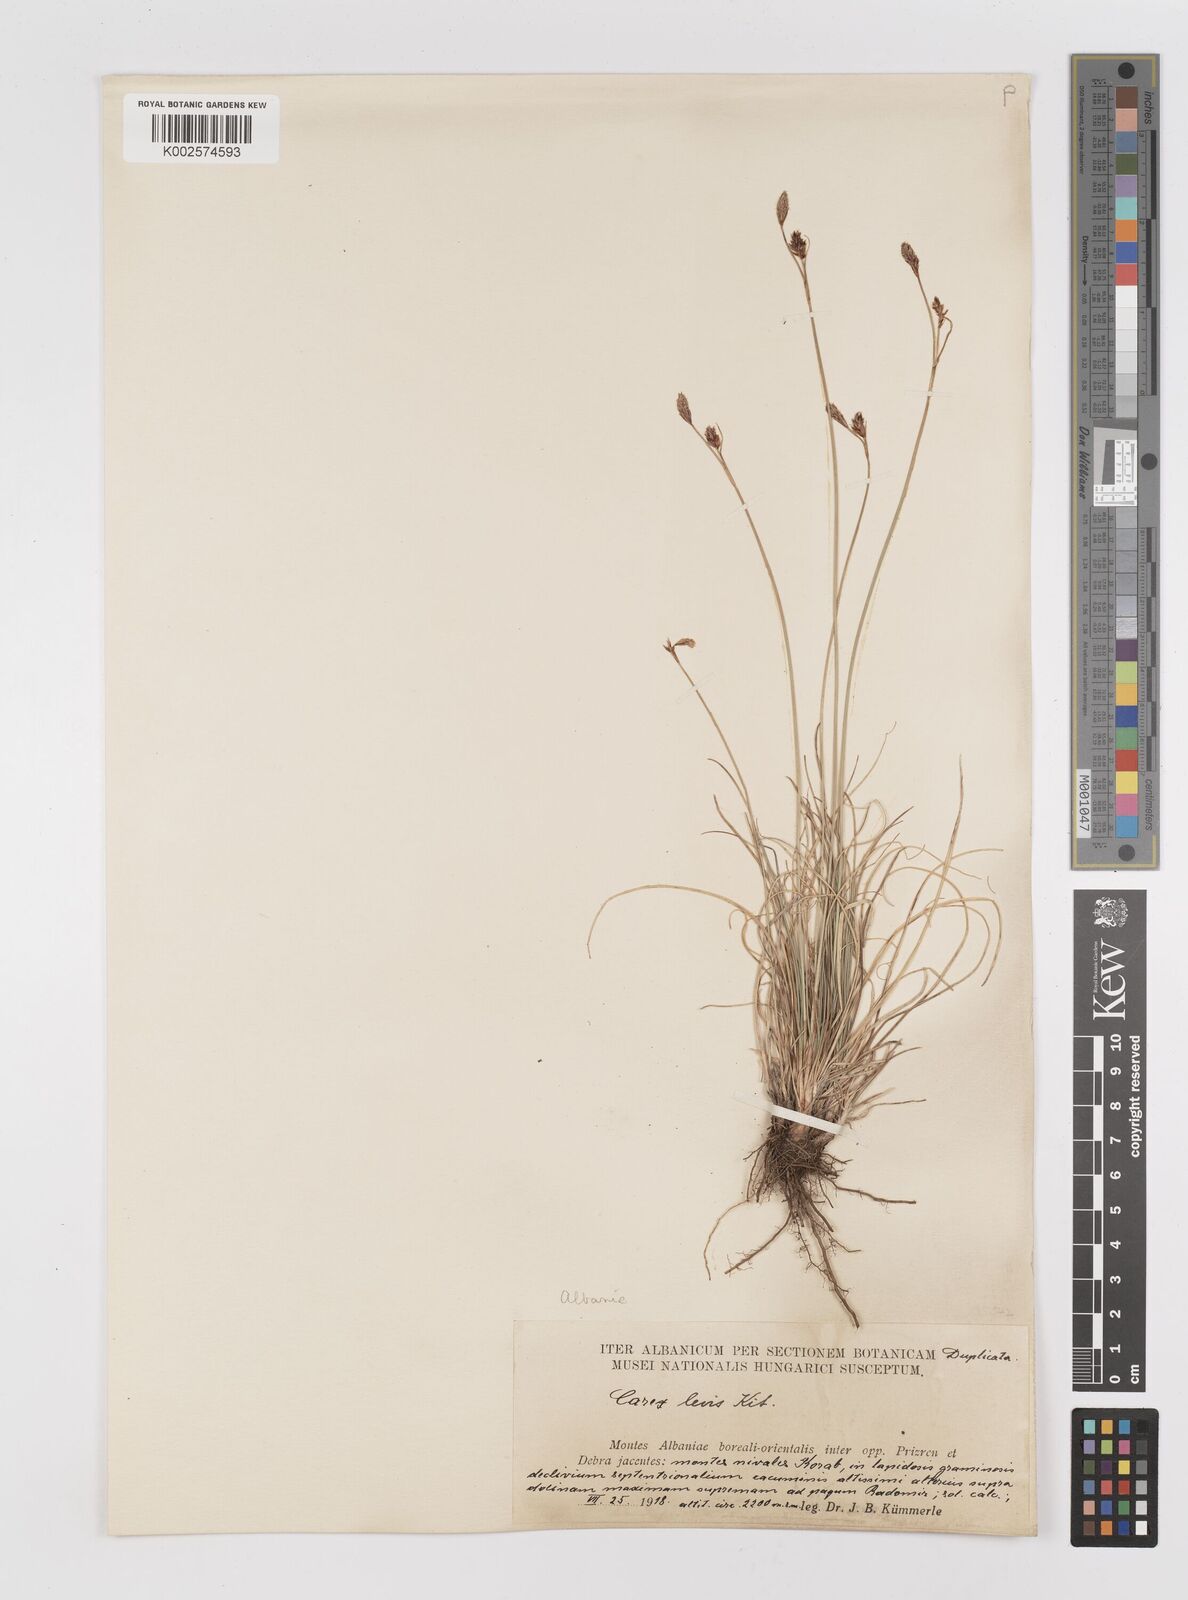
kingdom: Plantae
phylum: Tracheophyta
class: Liliopsida
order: Poales
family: Cyperaceae
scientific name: Cyperaceae
